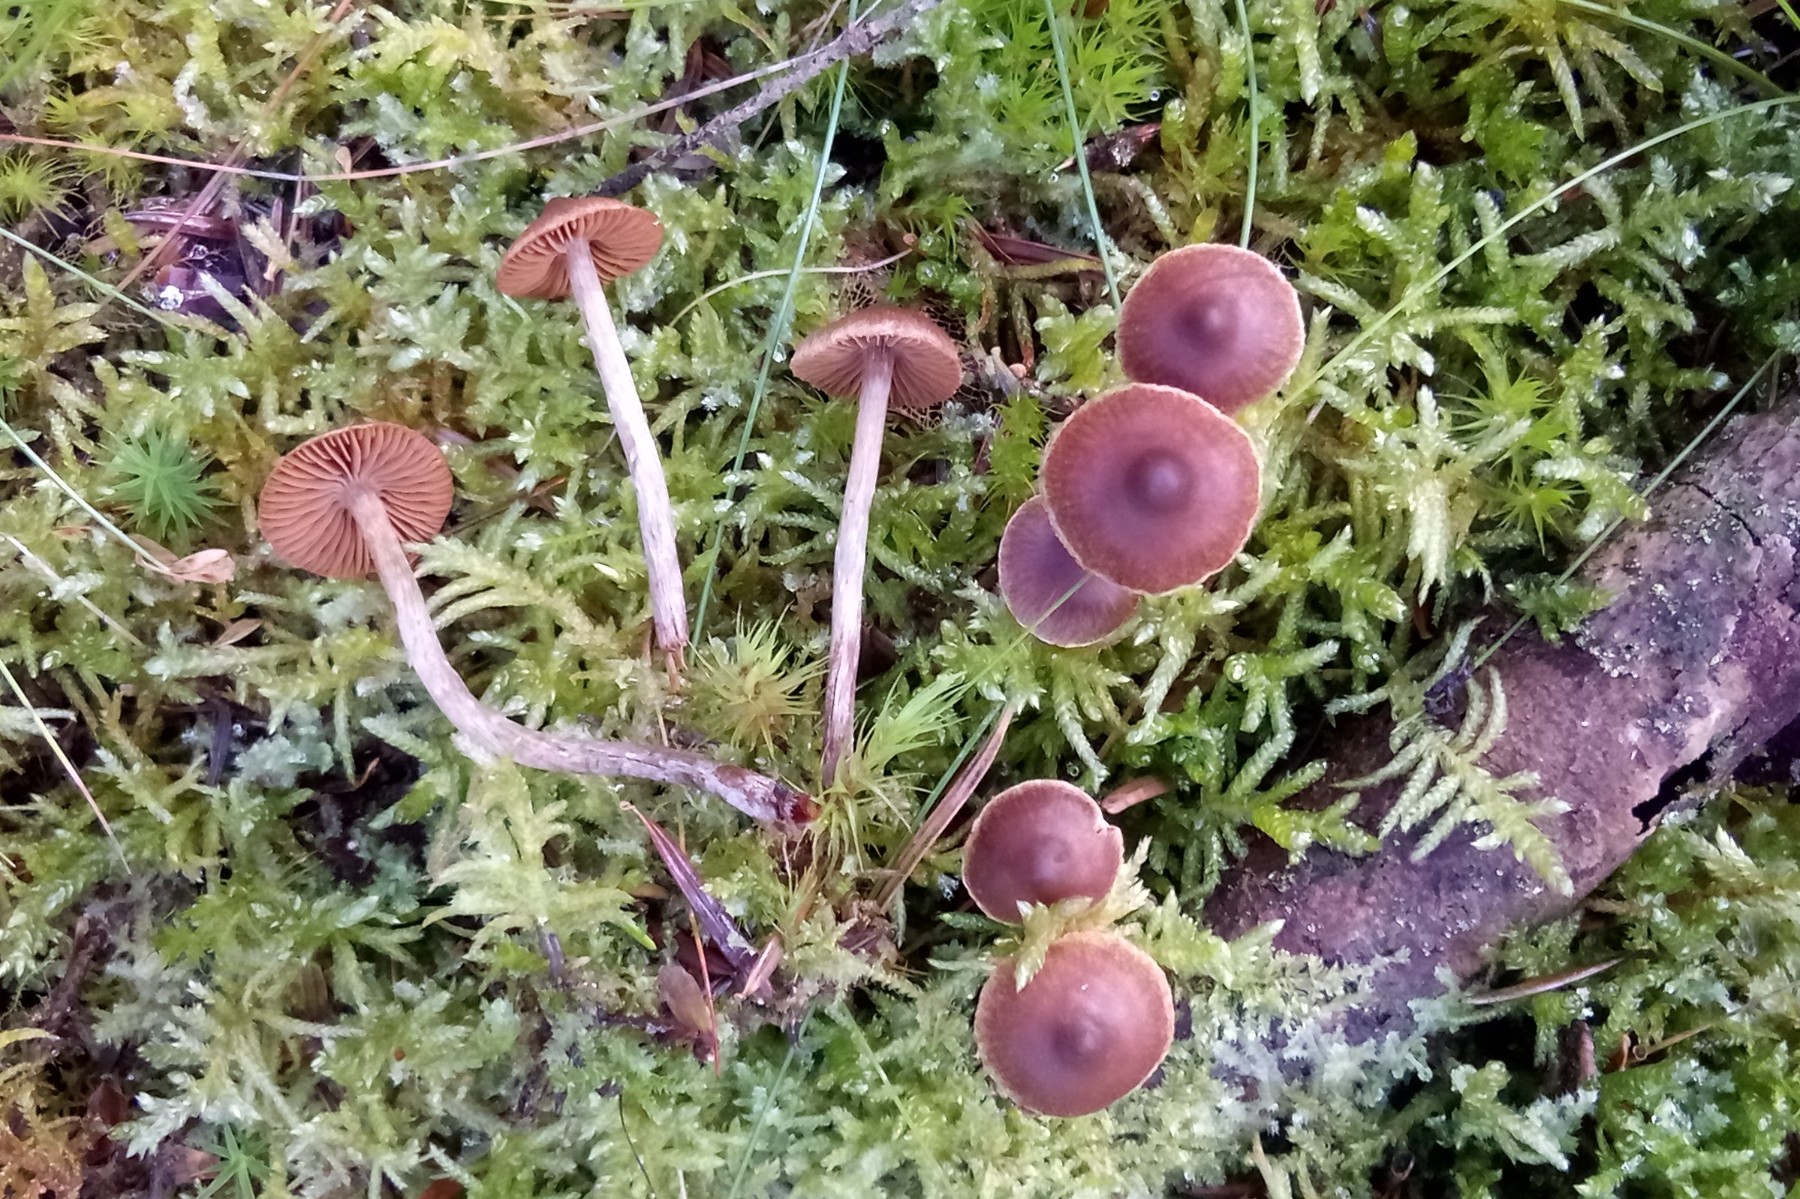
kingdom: Fungi
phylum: Basidiomycota
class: Agaricomycetes
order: Agaricales
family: Cortinariaceae
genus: Cortinarius
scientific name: Cortinarius pilatii
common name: Piláts slørhat
